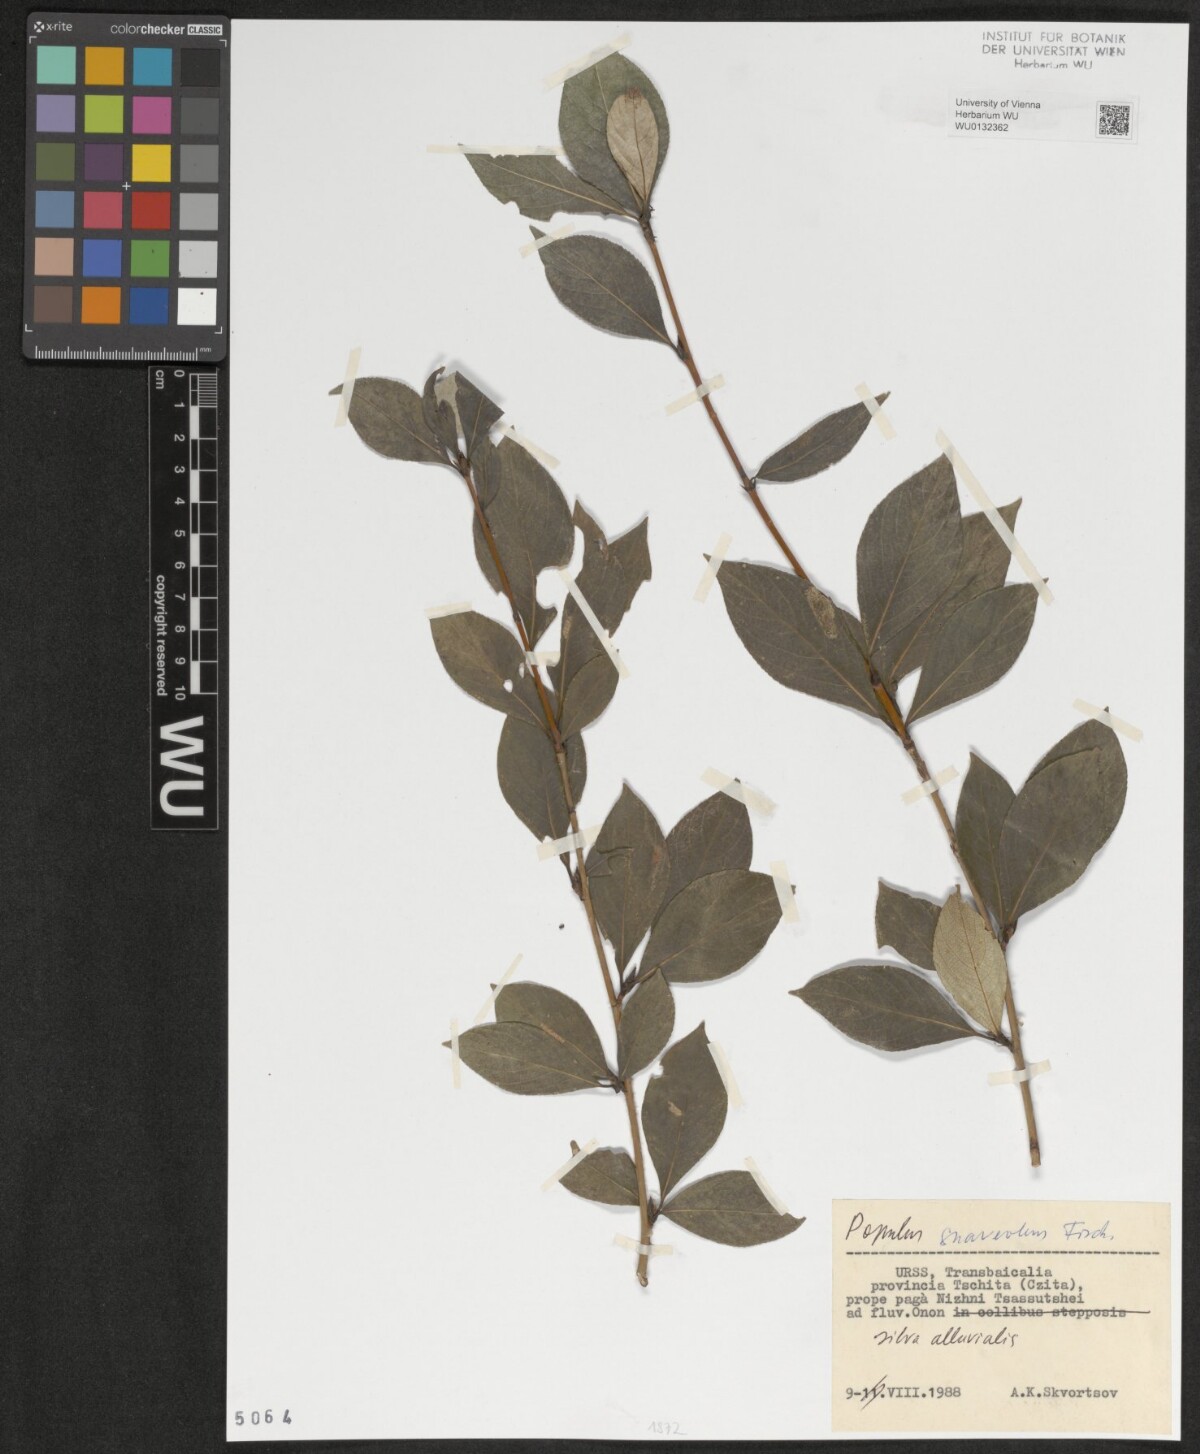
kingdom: Plantae
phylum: Tracheophyta
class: Magnoliopsida
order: Malpighiales
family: Salicaceae
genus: Populus
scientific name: Populus suaveolens
